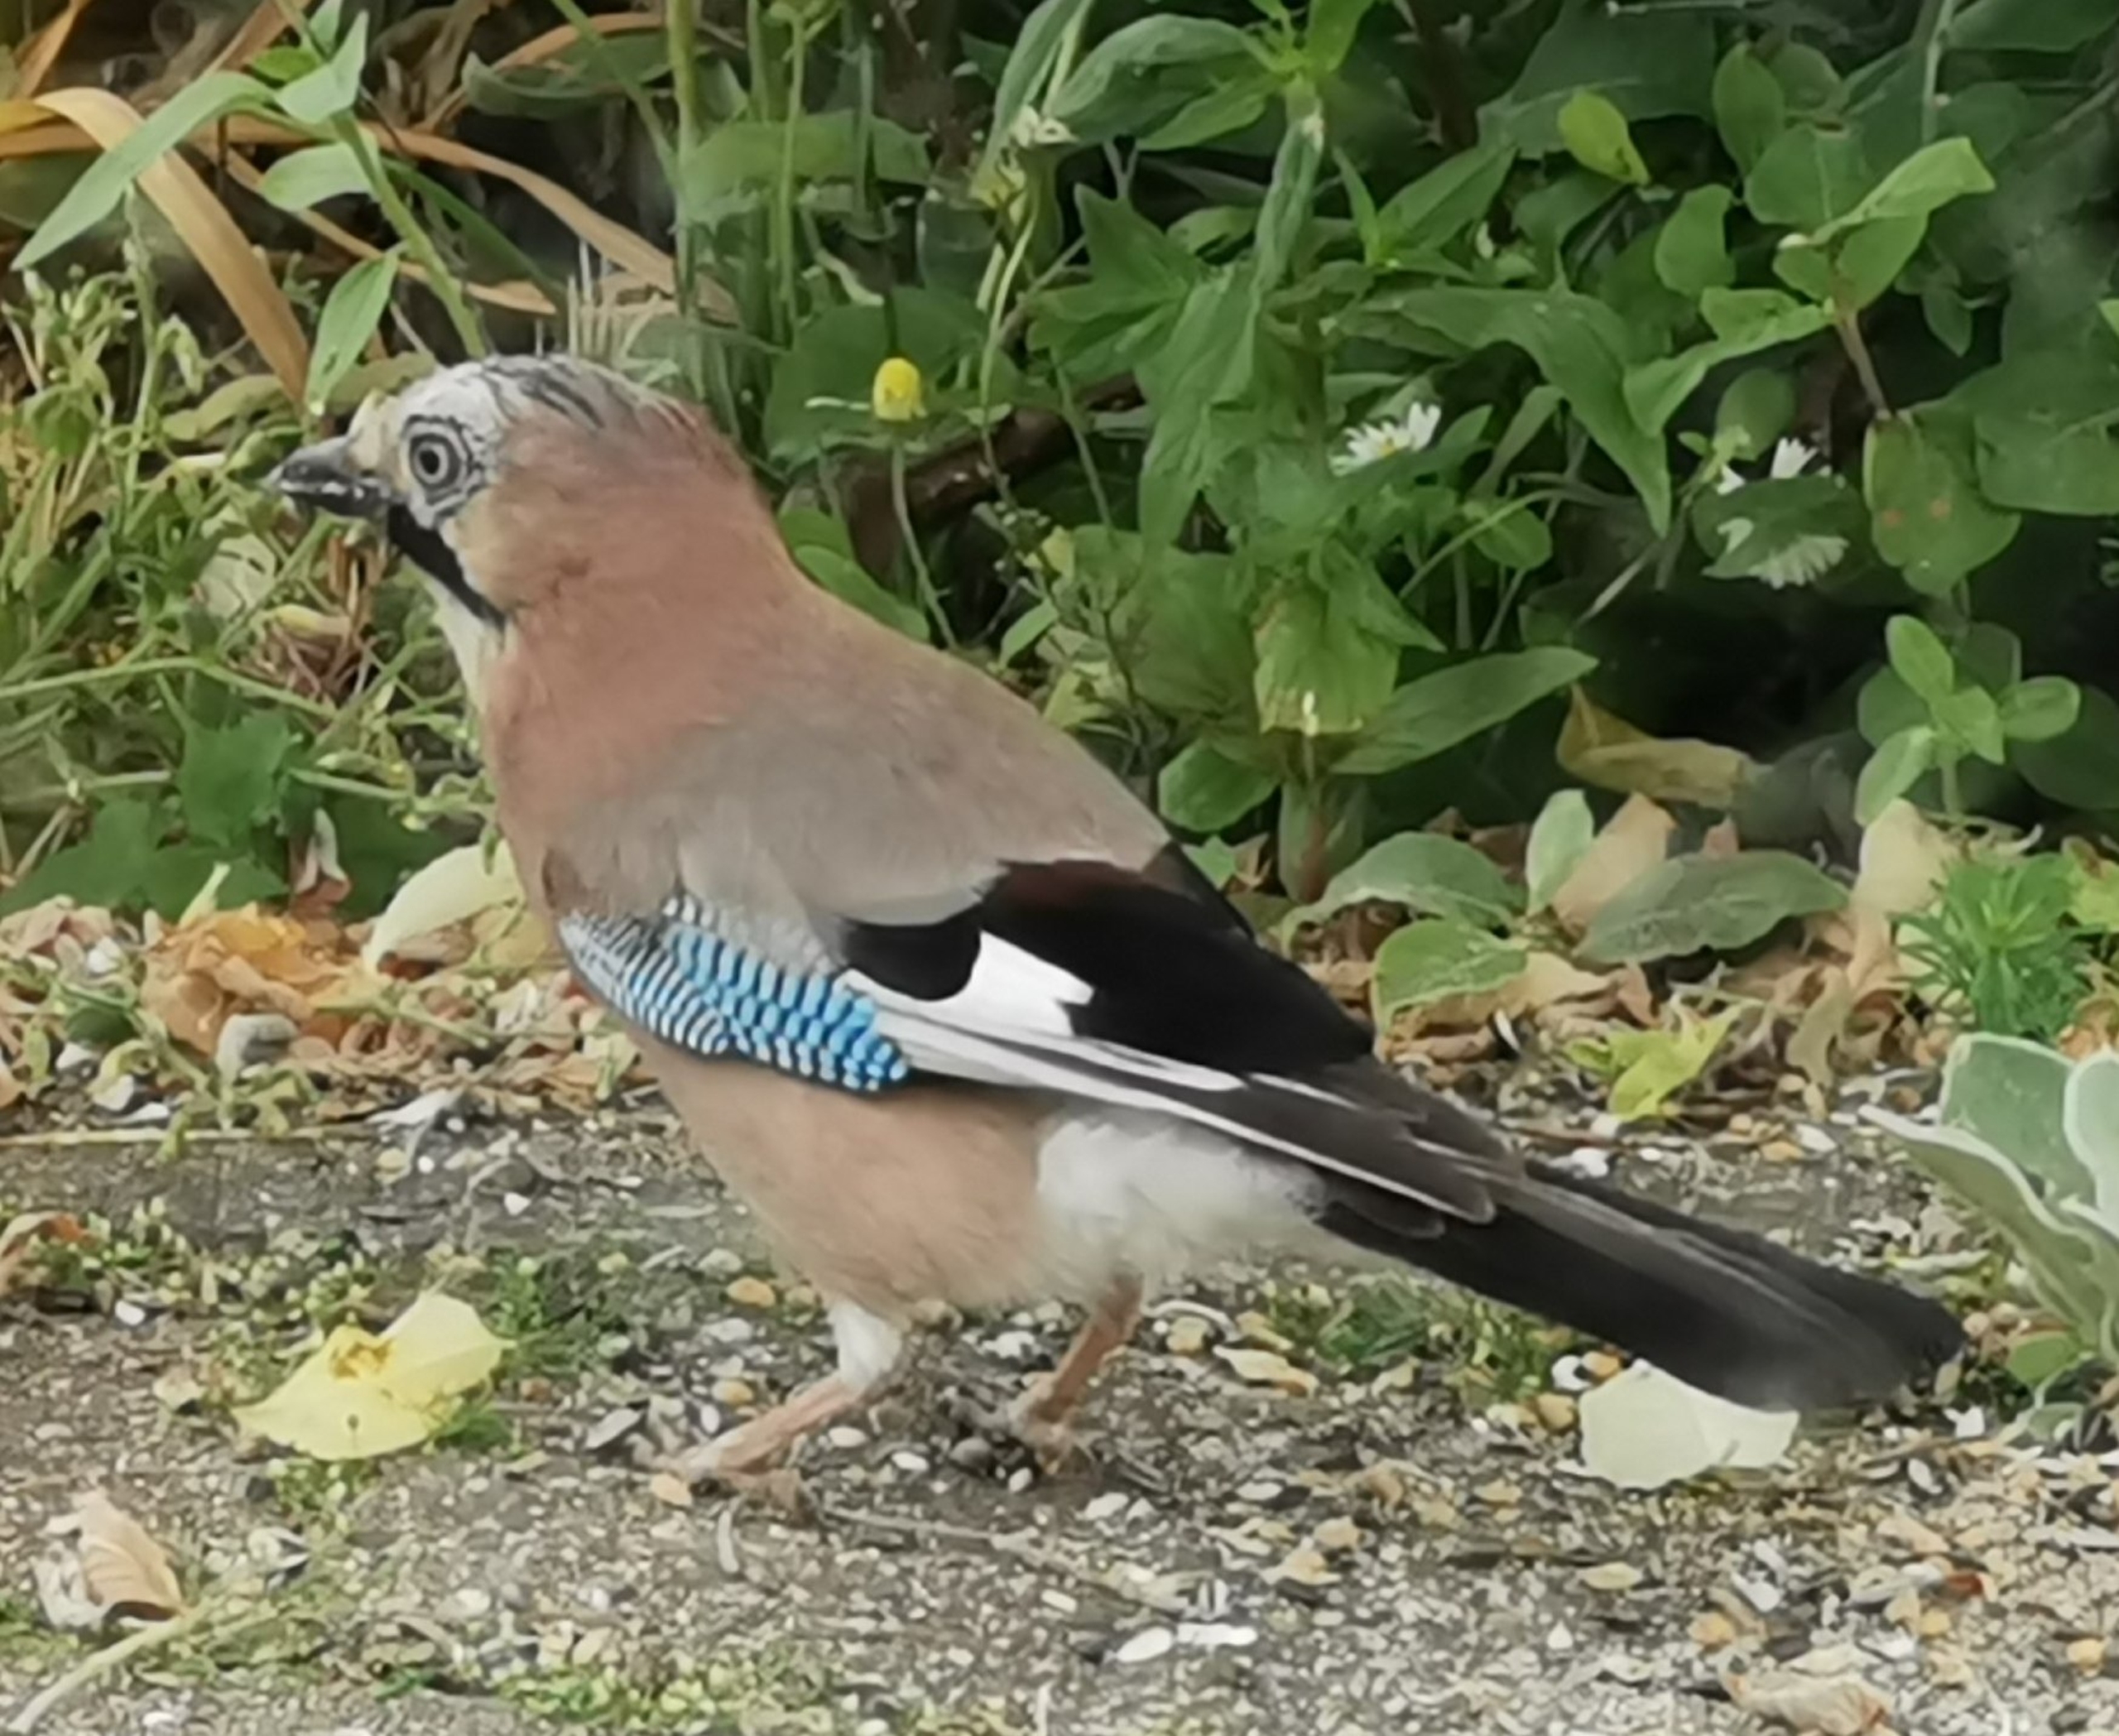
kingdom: Animalia
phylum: Chordata
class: Aves
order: Passeriformes
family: Corvidae
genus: Garrulus
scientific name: Garrulus glandarius
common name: Skovskade
